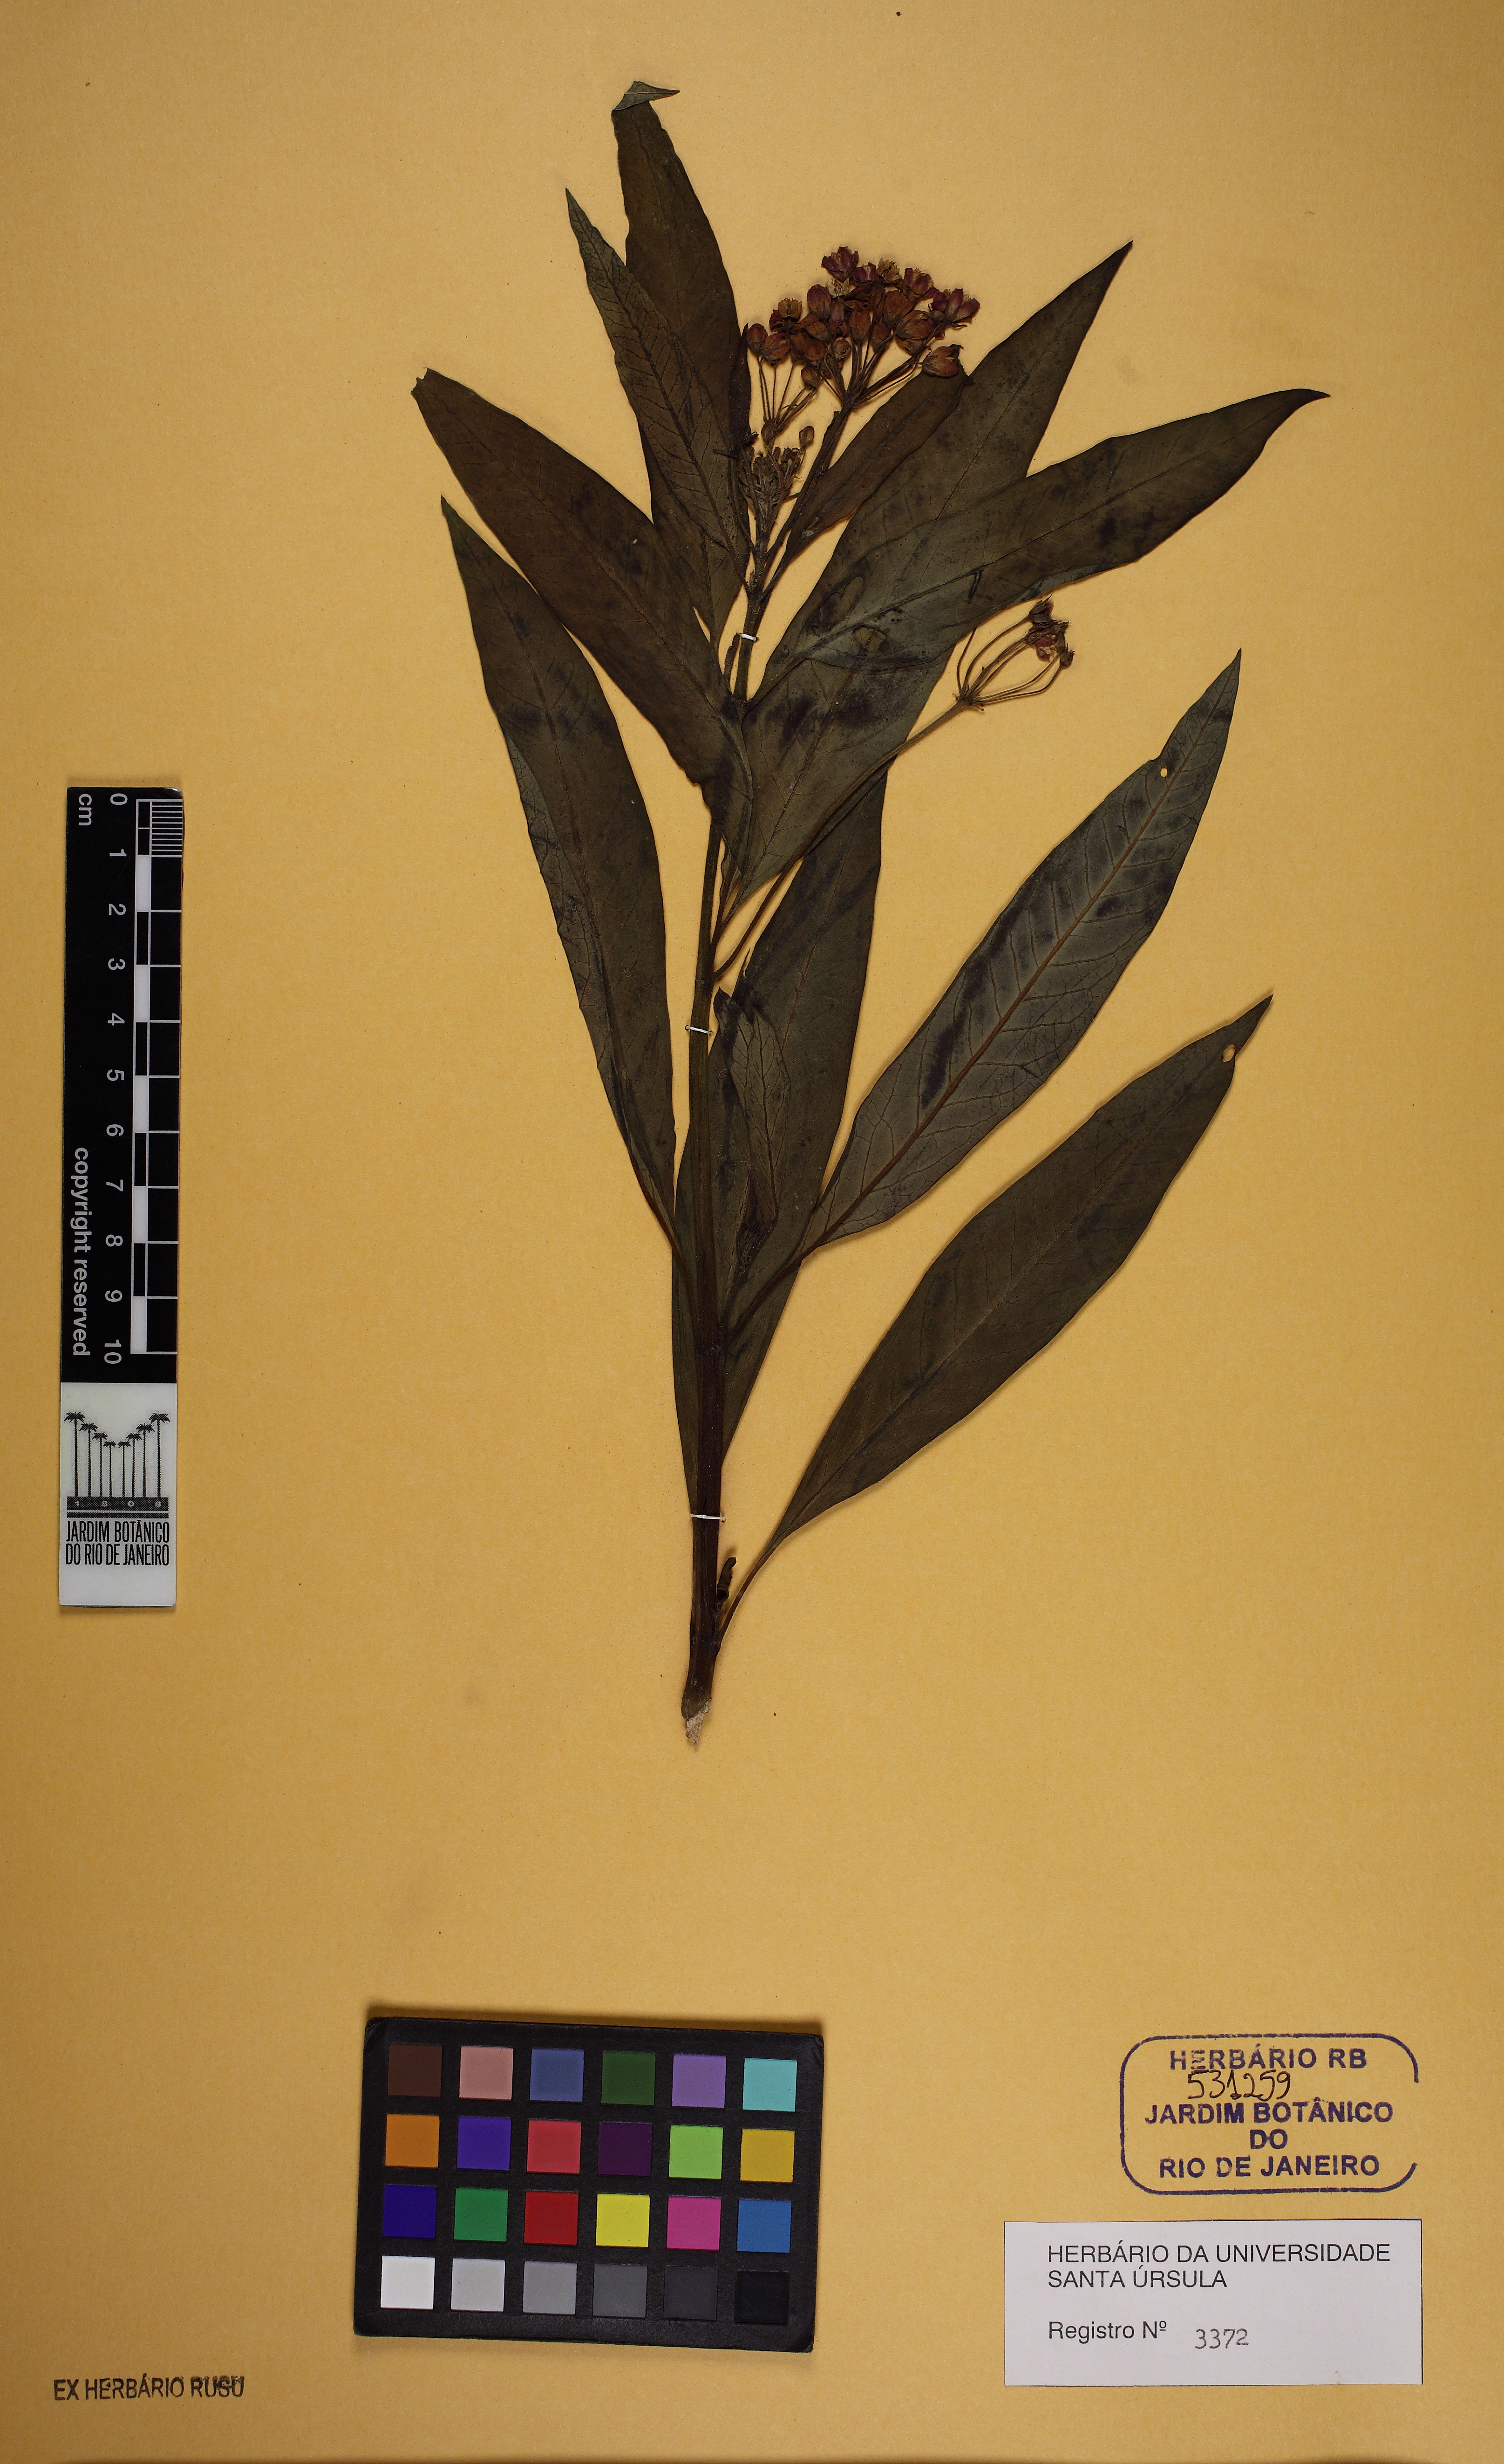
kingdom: Plantae
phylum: Tracheophyta
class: Magnoliopsida
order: Gentianales
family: Apocynaceae
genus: Asclepias
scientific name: Asclepias curassavica
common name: Bloodflower
